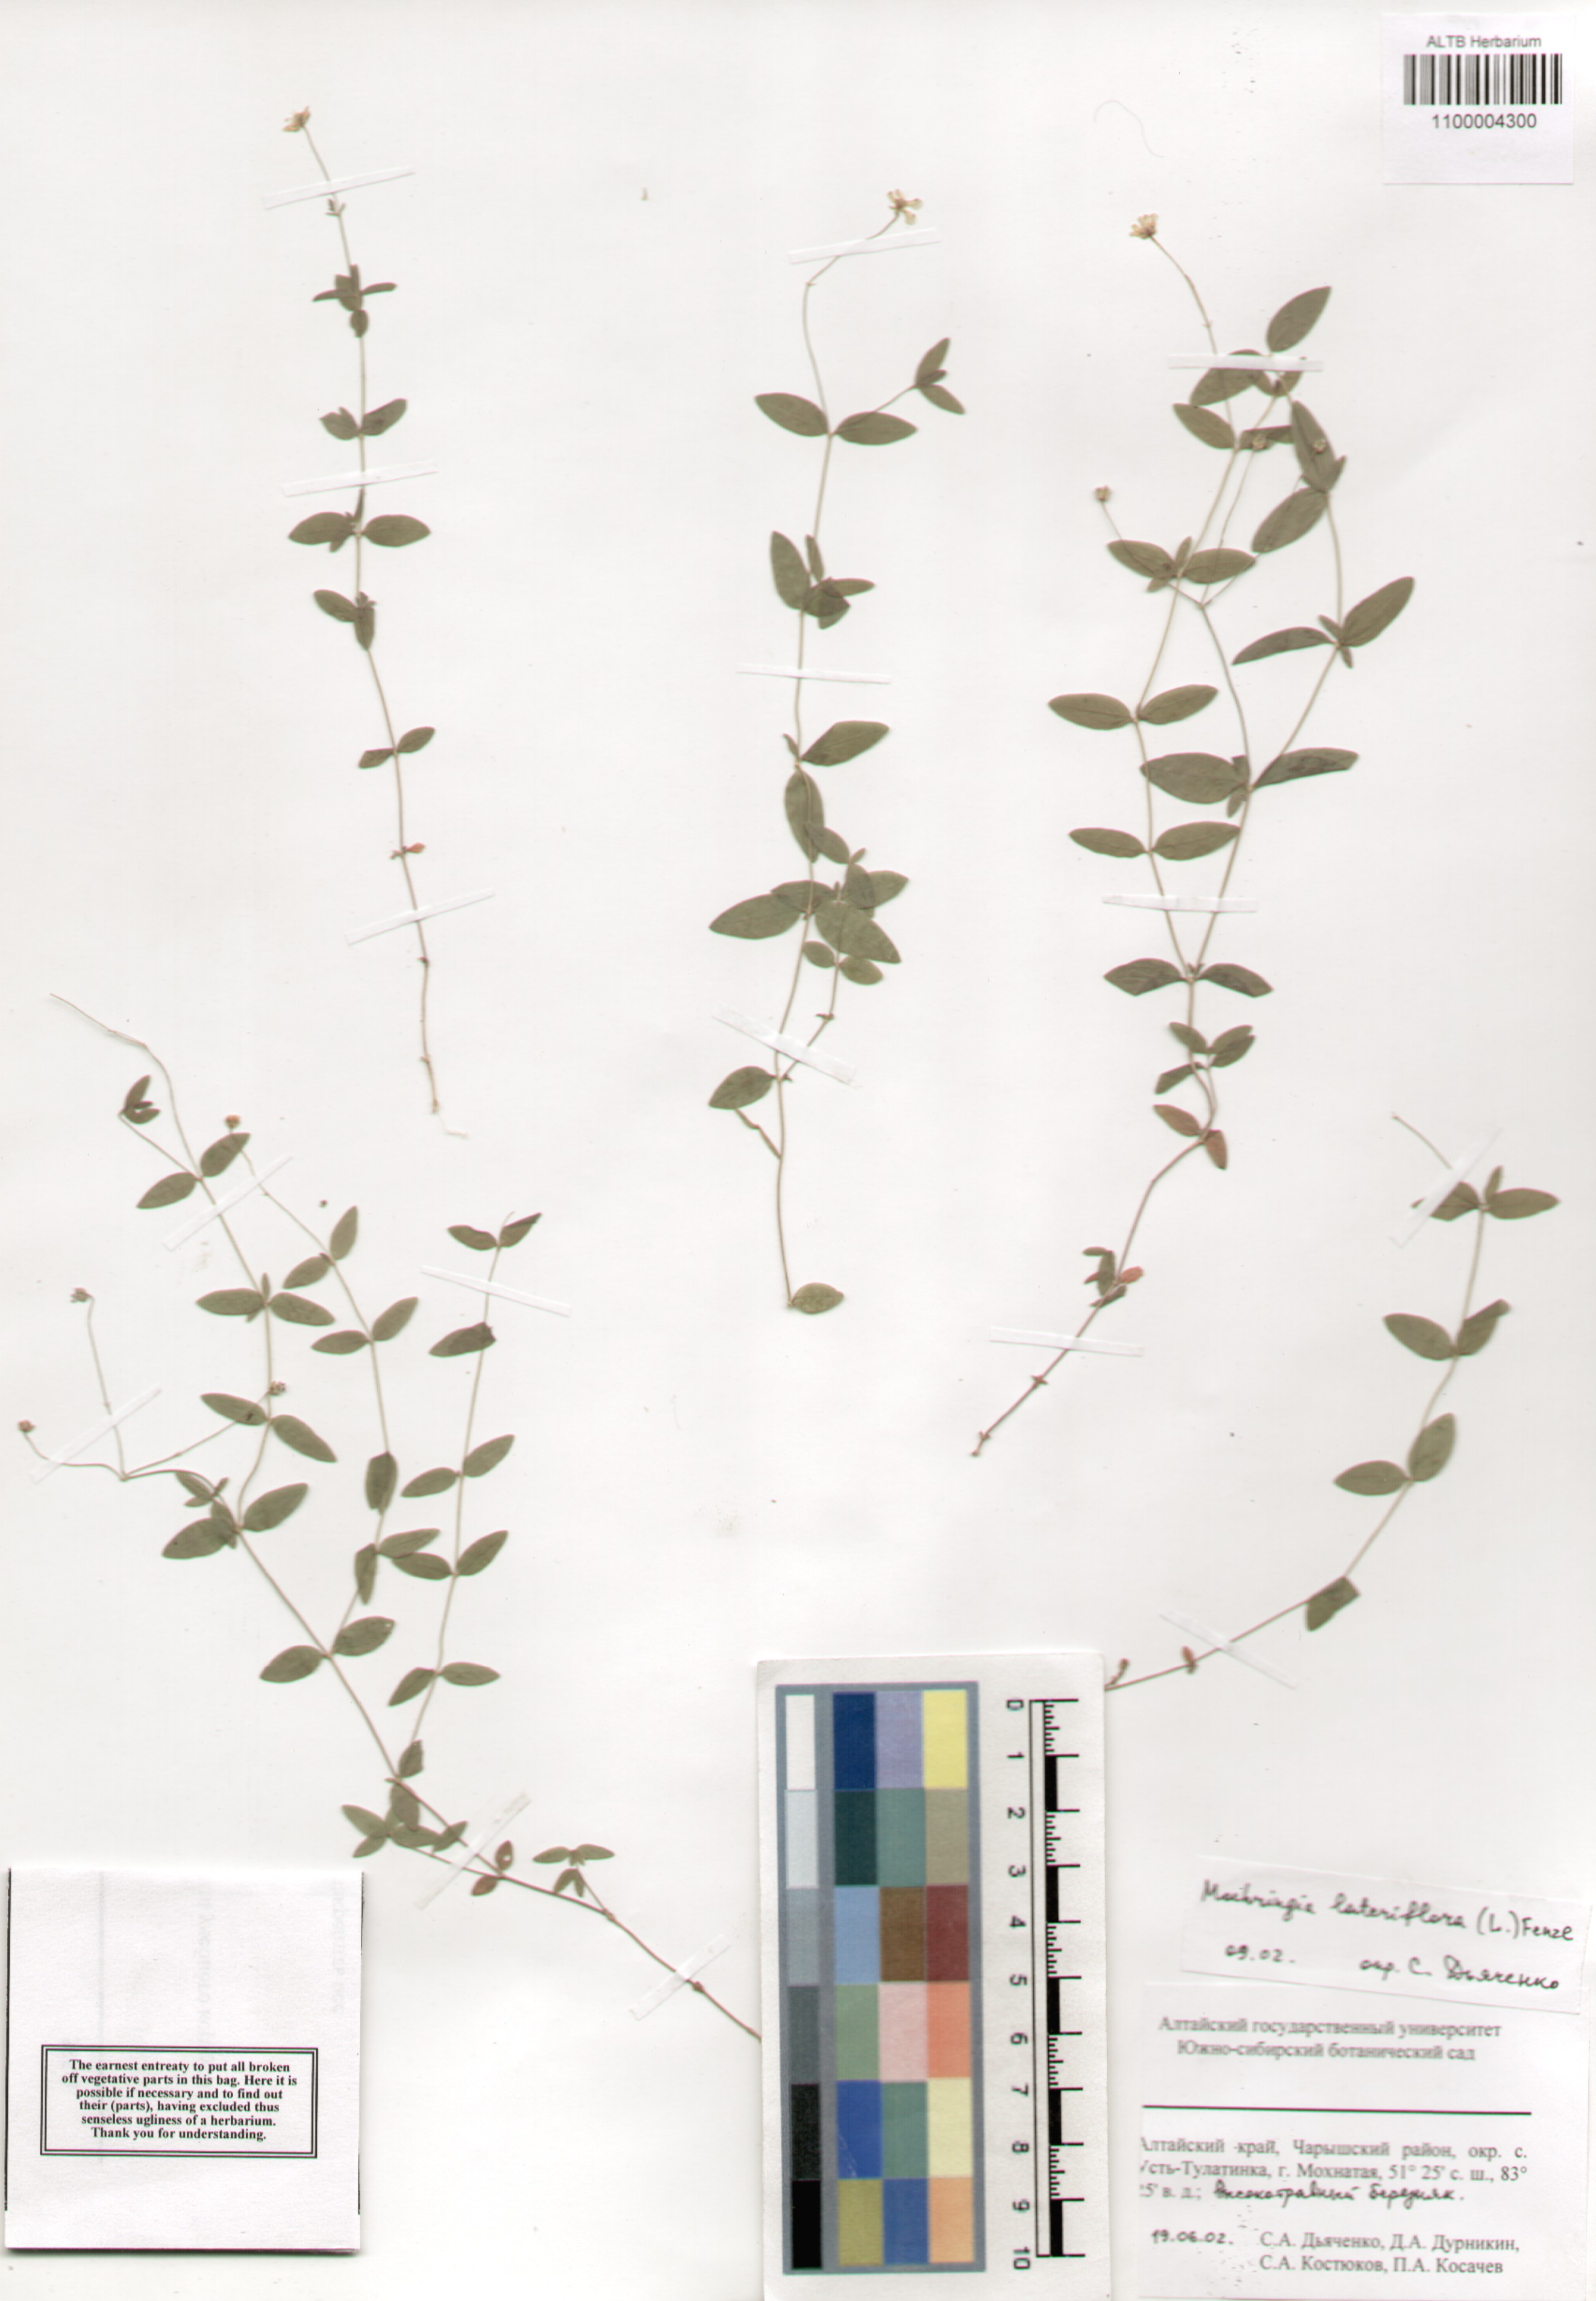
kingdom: Plantae
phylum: Tracheophyta
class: Magnoliopsida
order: Caryophyllales
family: Caryophyllaceae
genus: Moehringia
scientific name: Moehringia lateriflora
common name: Blunt-leaved sandwort
